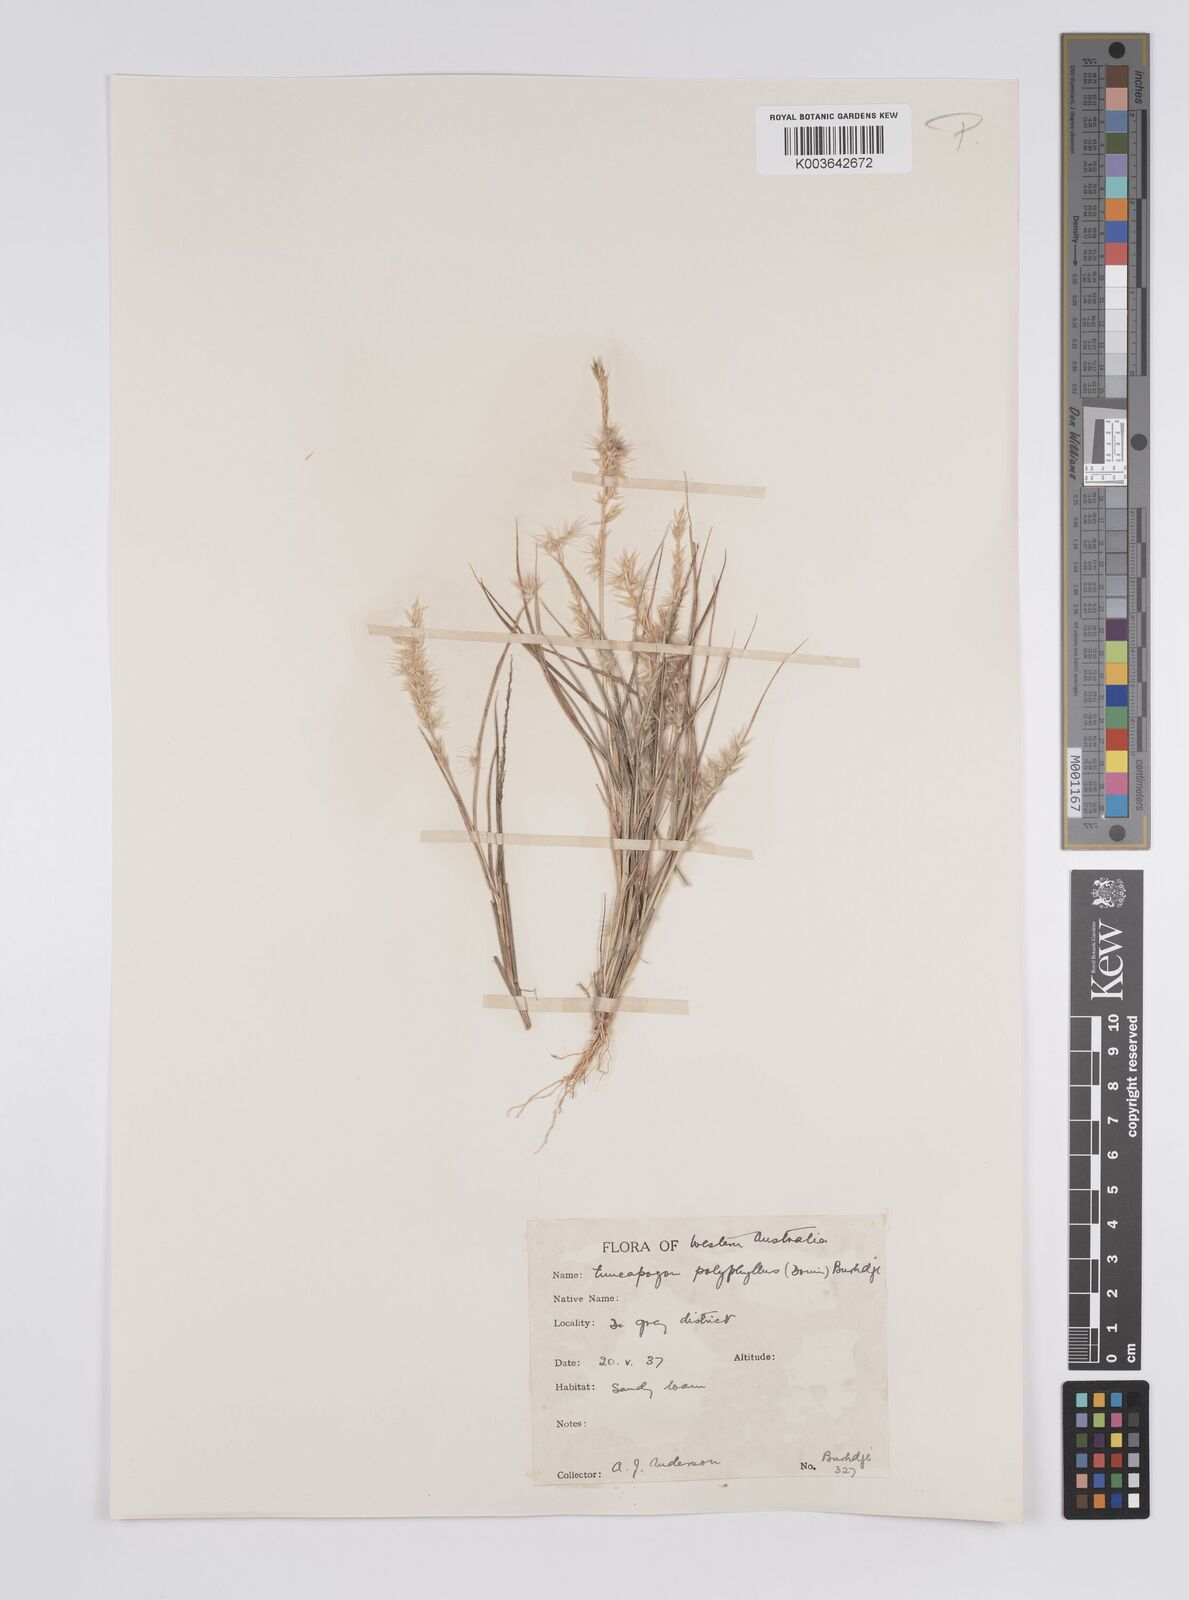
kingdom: Plantae
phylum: Tracheophyta
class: Liliopsida
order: Poales
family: Poaceae
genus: Enneapogon
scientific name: Enneapogon polyphyllus
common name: Leafy nineawn
